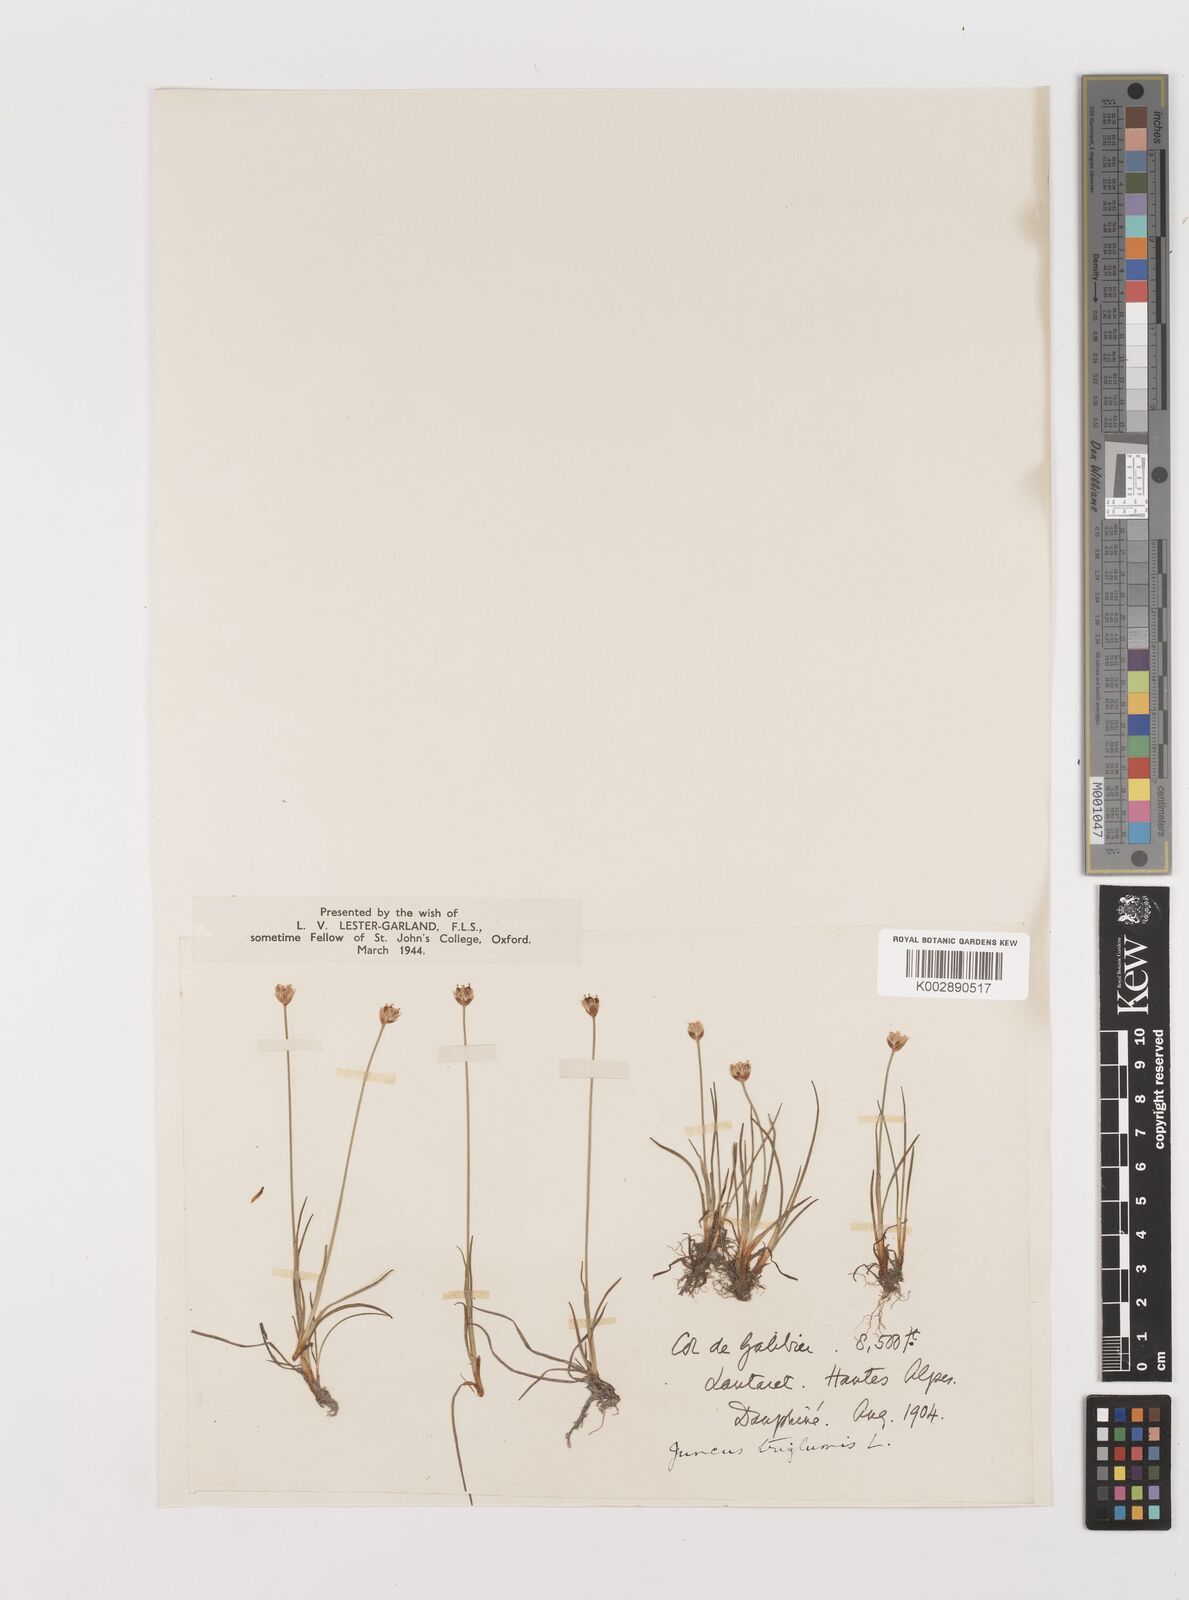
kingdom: Plantae
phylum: Tracheophyta
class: Liliopsida
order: Poales
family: Juncaceae
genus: Juncus
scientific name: Juncus triglumis
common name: Three-flowered rush
